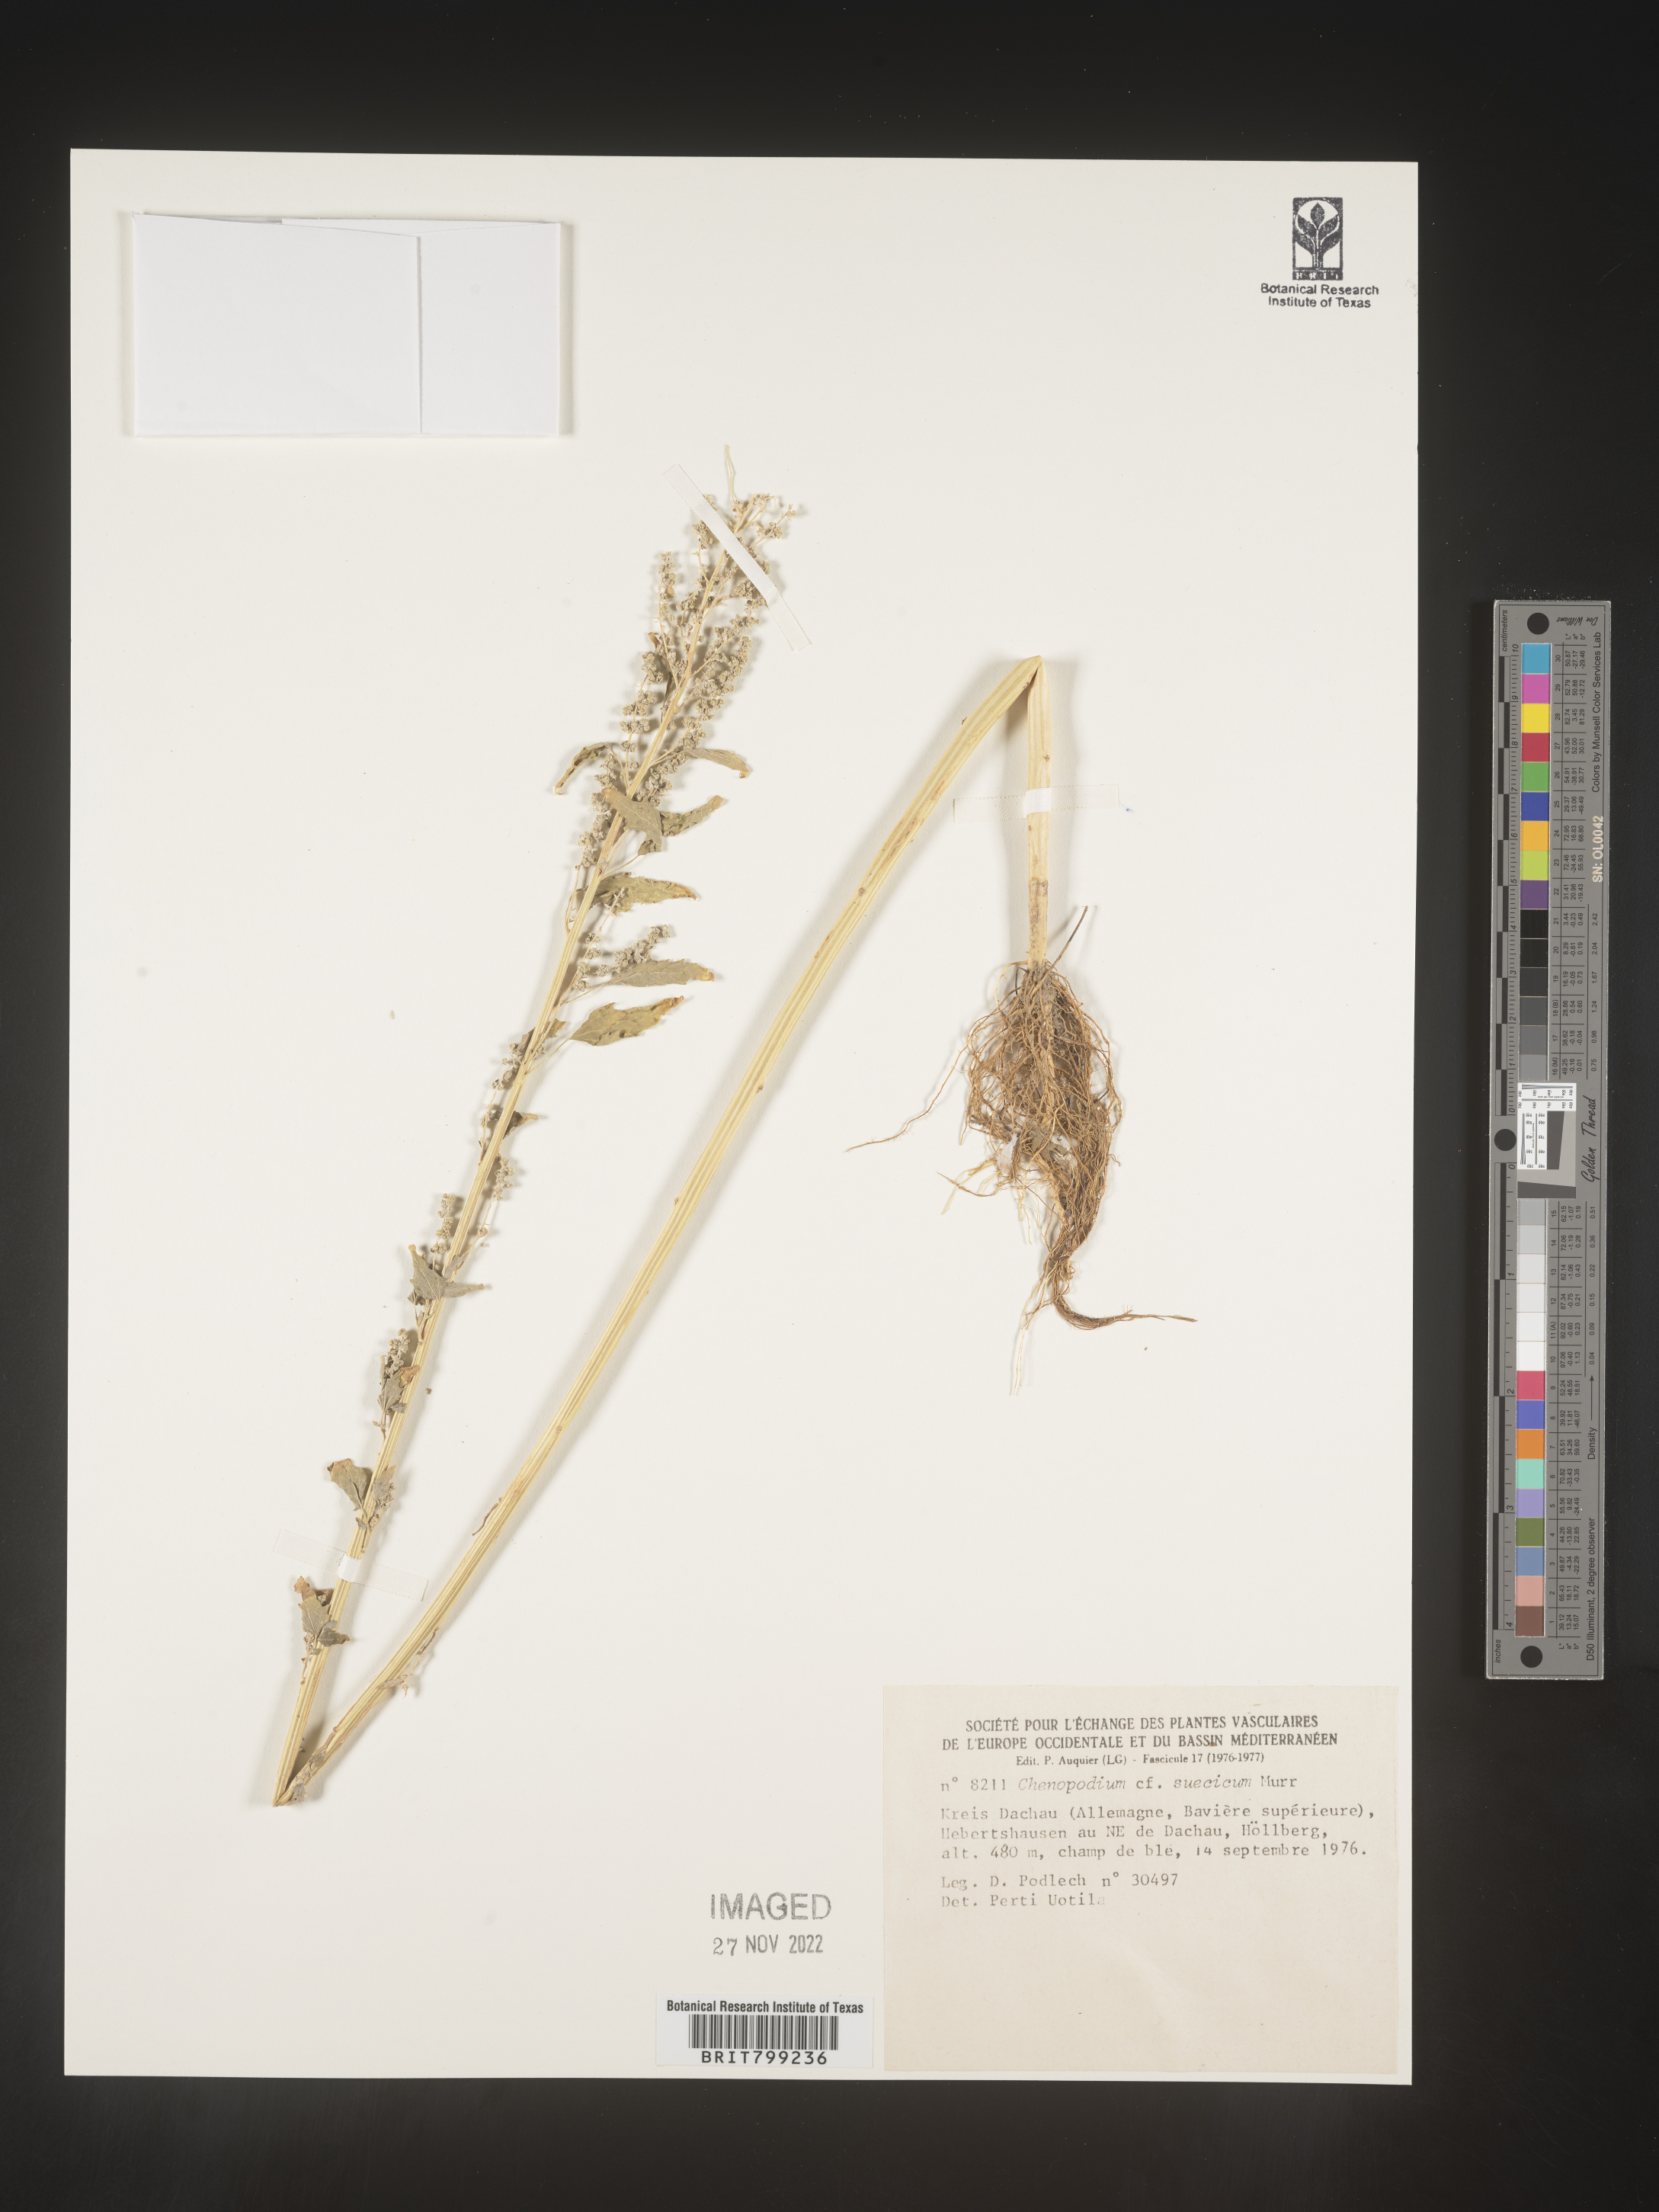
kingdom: Plantae
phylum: Tracheophyta
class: Magnoliopsida
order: Caryophyllales
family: Amaranthaceae
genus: Chenopodium
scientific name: Chenopodium
